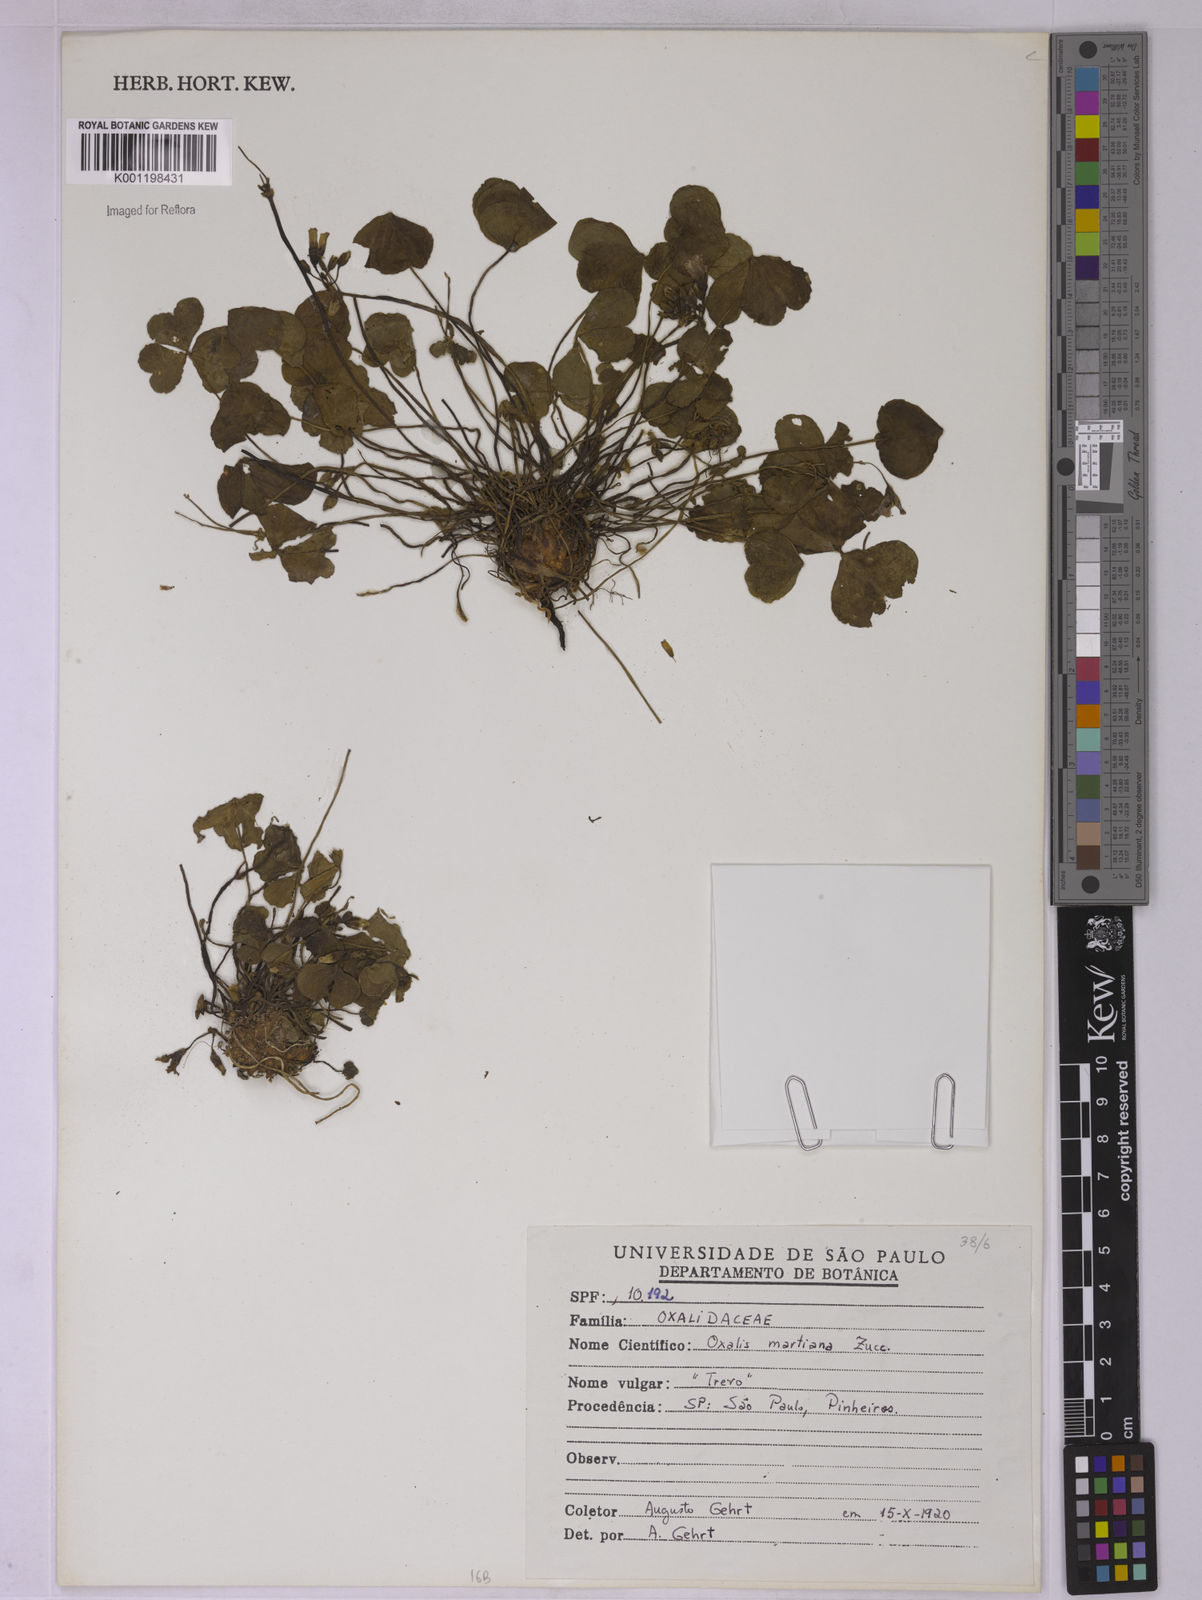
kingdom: Plantae
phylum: Tracheophyta
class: Magnoliopsida
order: Oxalidales
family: Oxalidaceae
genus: Oxalis
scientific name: Oxalis debilis
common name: Large-flowered pink-sorrel
